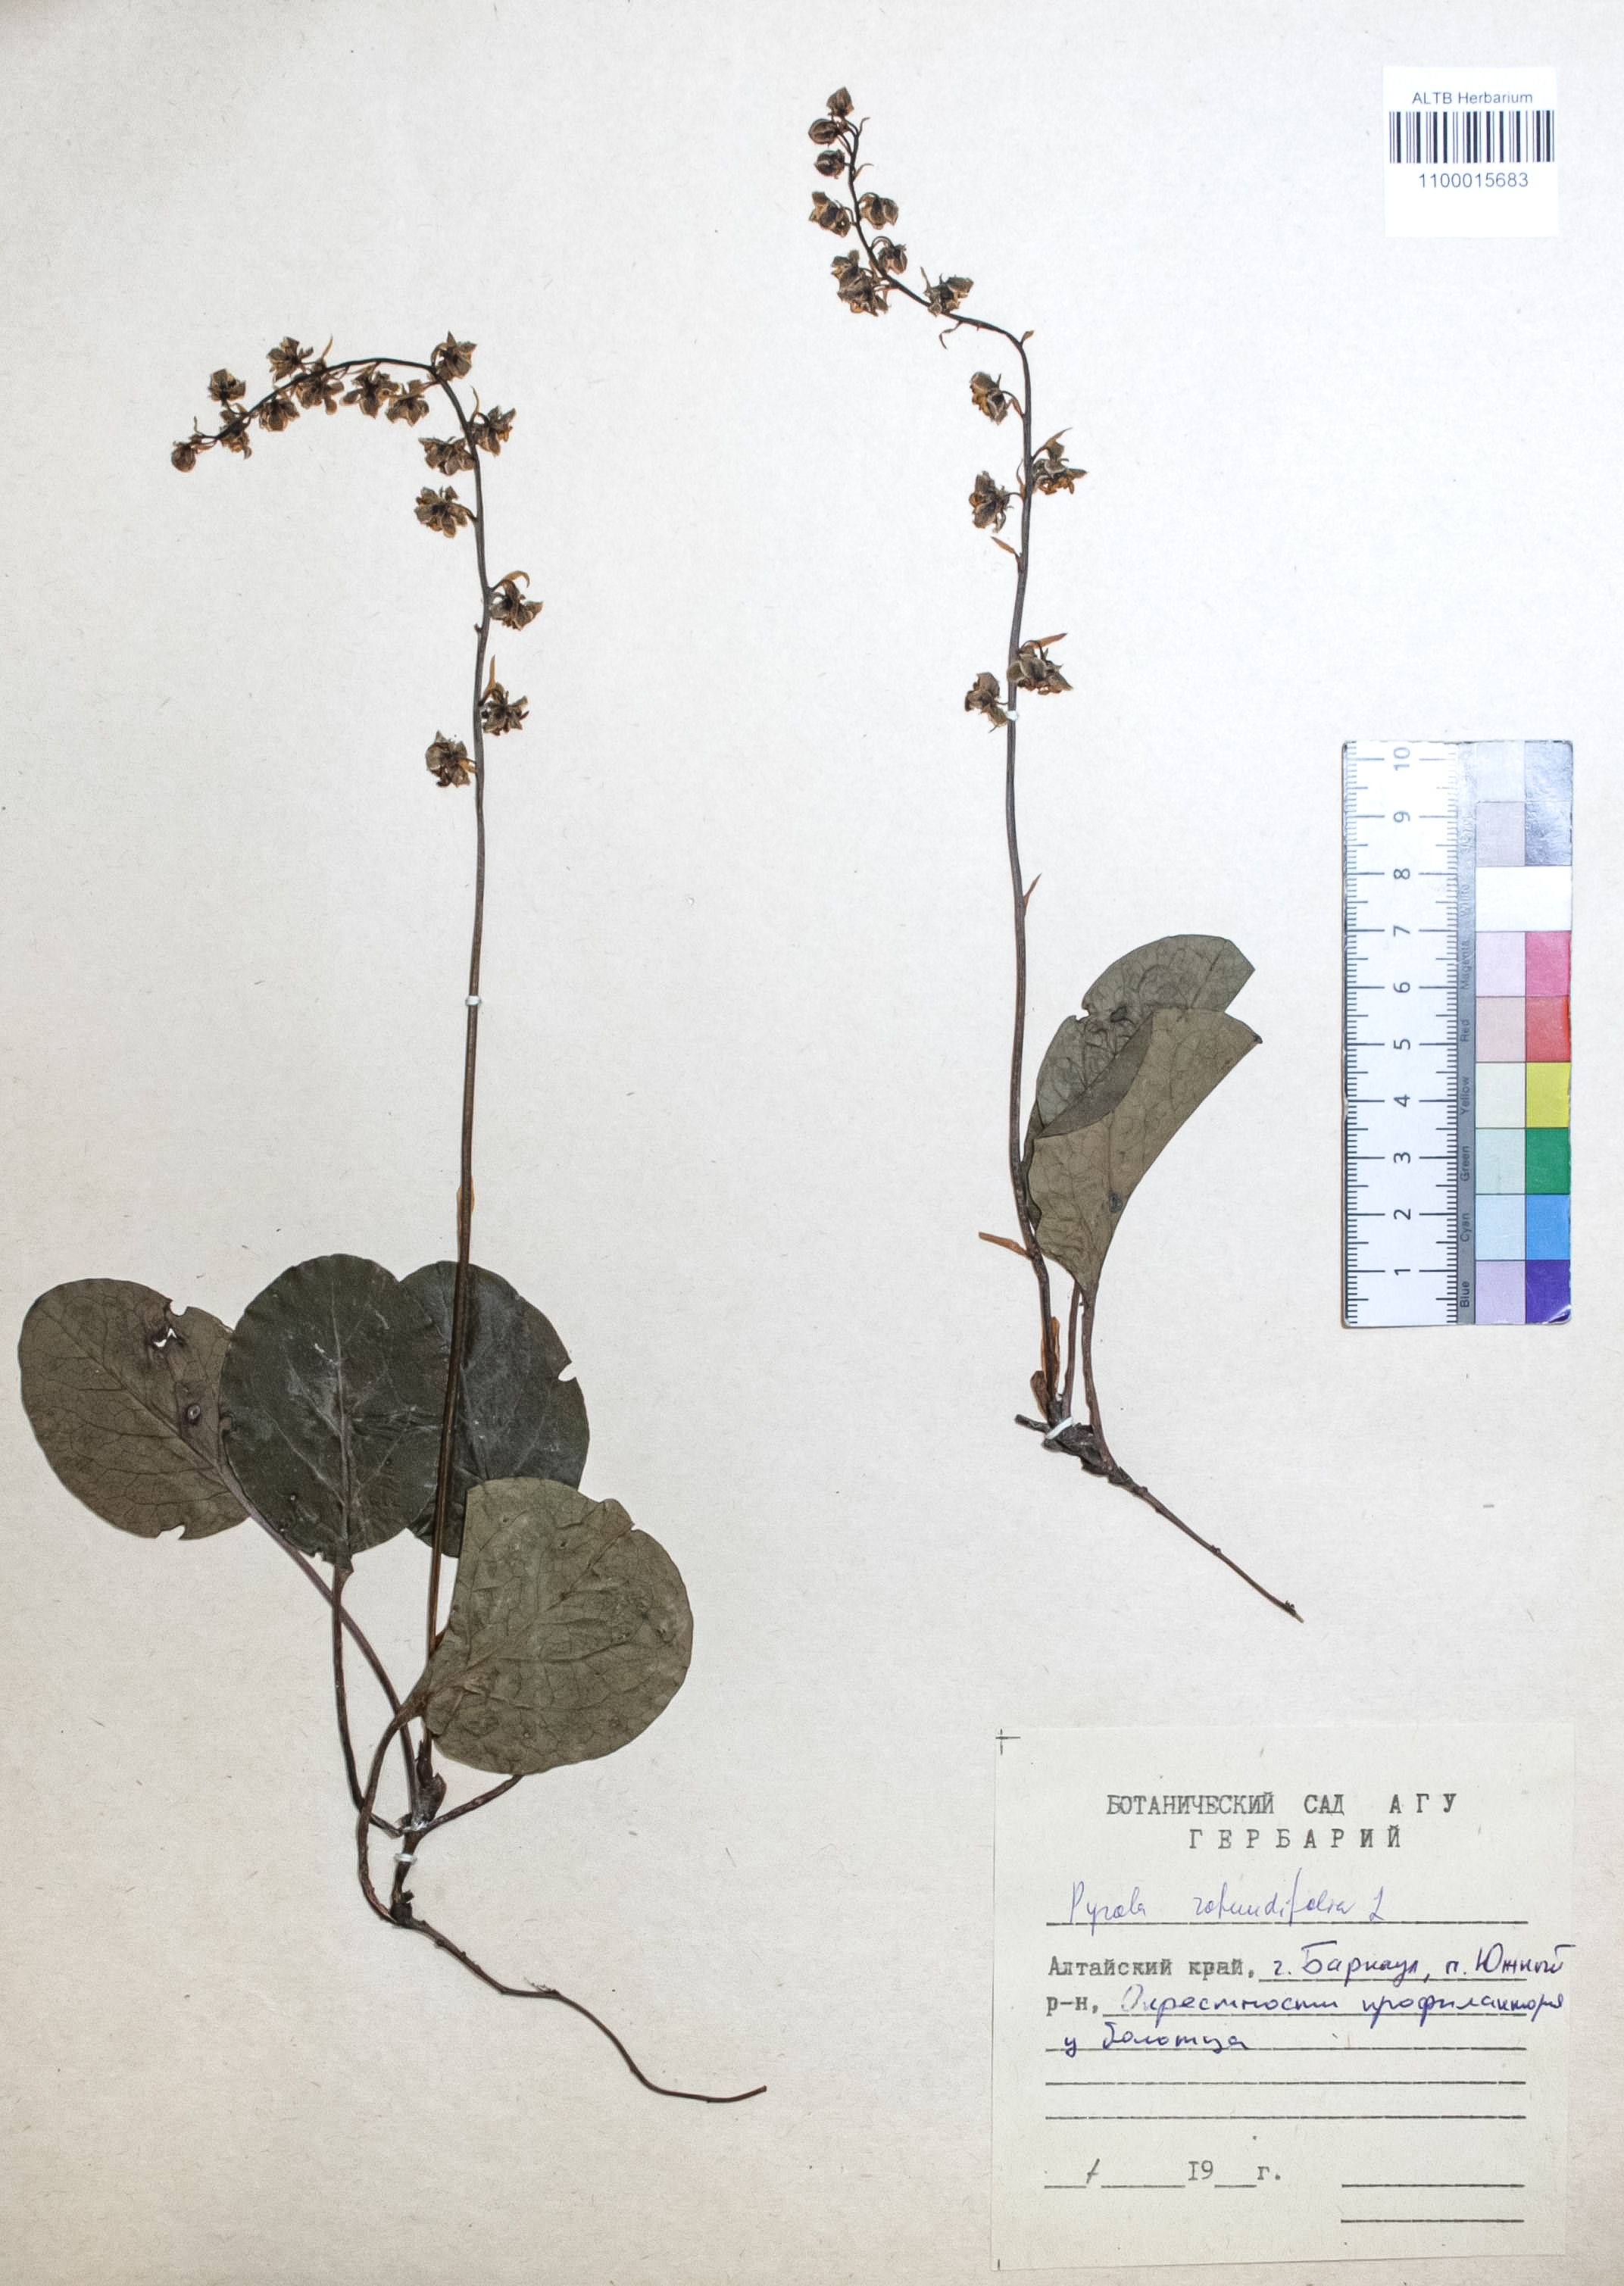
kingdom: Plantae
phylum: Tracheophyta
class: Magnoliopsida
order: Ericales
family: Ericaceae
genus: Pyrola
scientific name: Pyrola rotundifolia
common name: Round-leaved wintergreen
